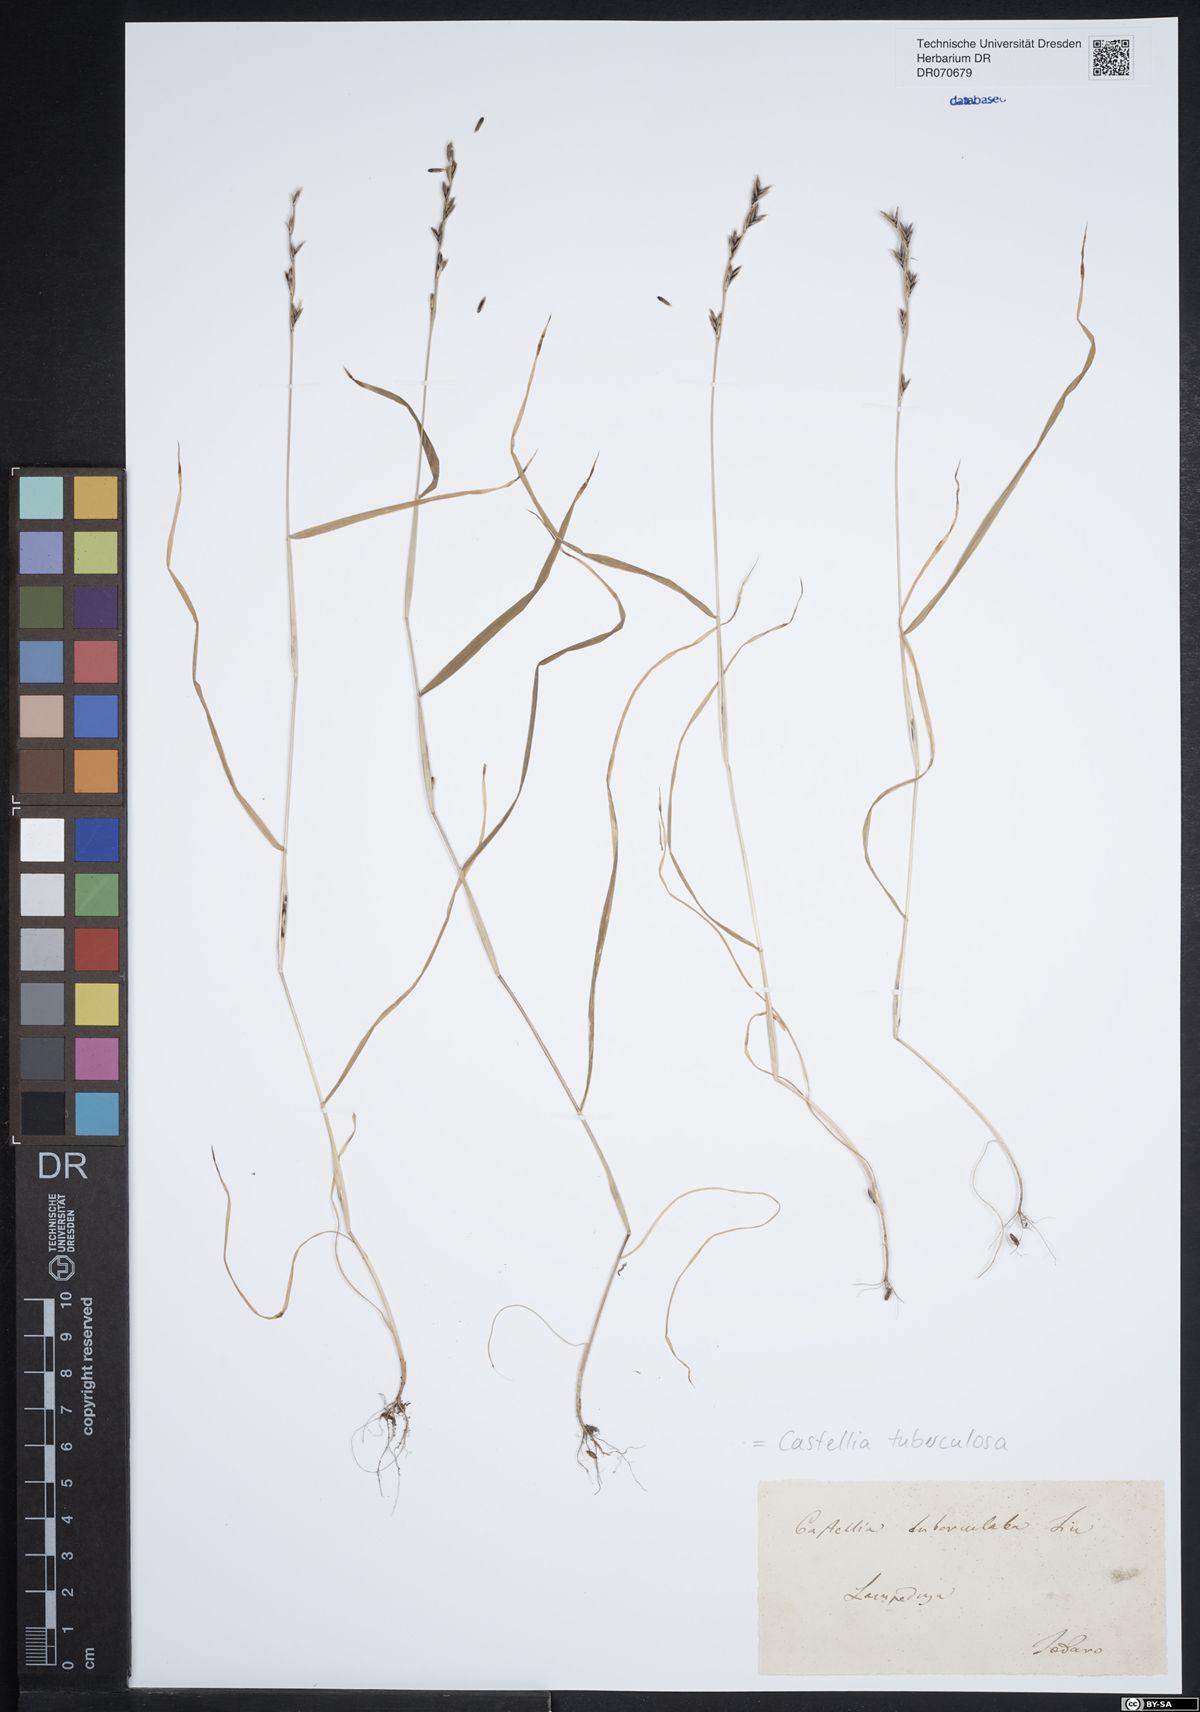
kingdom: Plantae
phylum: Tracheophyta
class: Liliopsida
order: Poales
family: Poaceae
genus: Castellia
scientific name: Castellia tuberculosa
